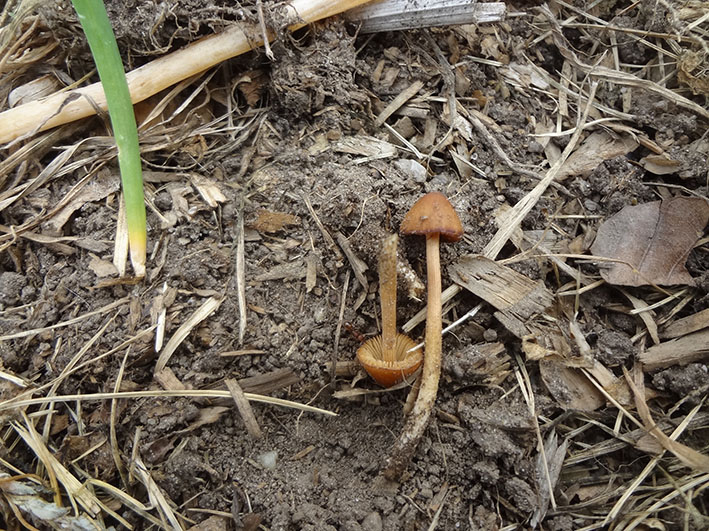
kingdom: Fungi
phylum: Basidiomycota
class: Agaricomycetes
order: Agaricales
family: Bolbitiaceae
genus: Conocybe
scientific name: Conocybe subpubescens
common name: krat-keglehat
